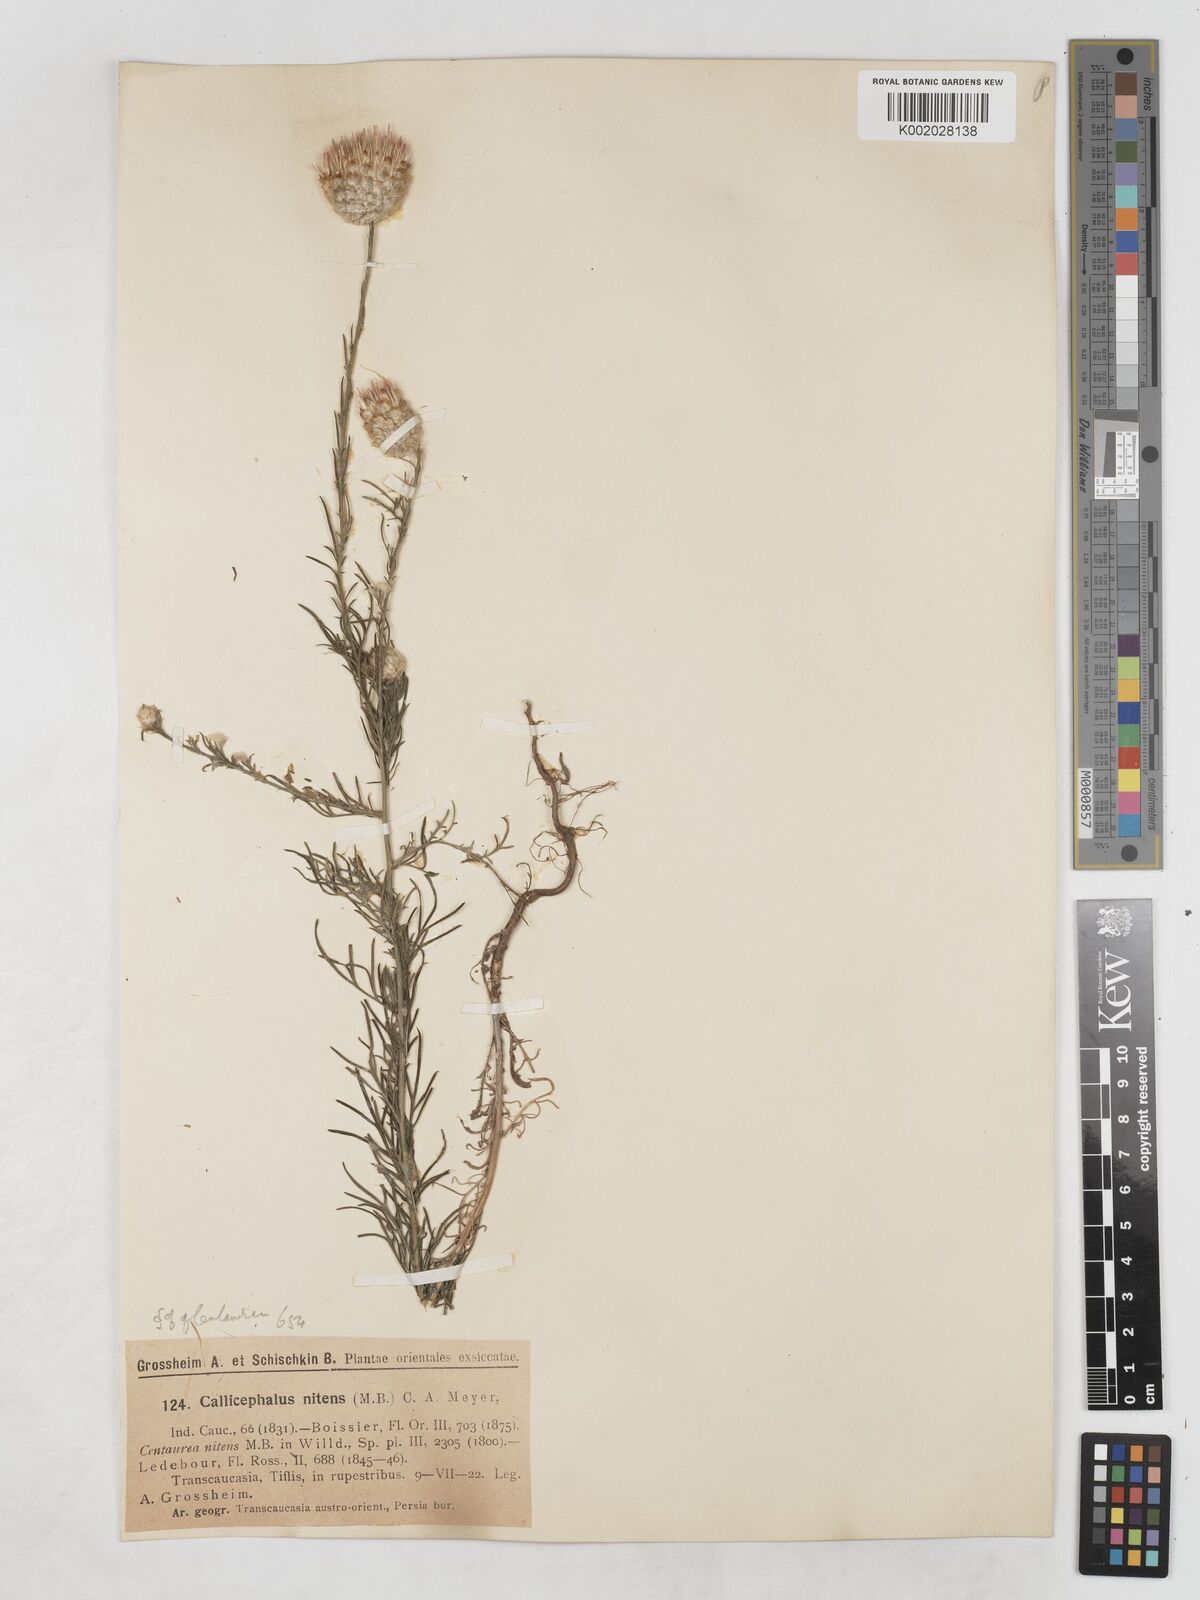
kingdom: Plantae
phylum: Tracheophyta
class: Magnoliopsida
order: Asterales
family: Asteraceae
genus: Callicephalus
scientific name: Callicephalus nitens
